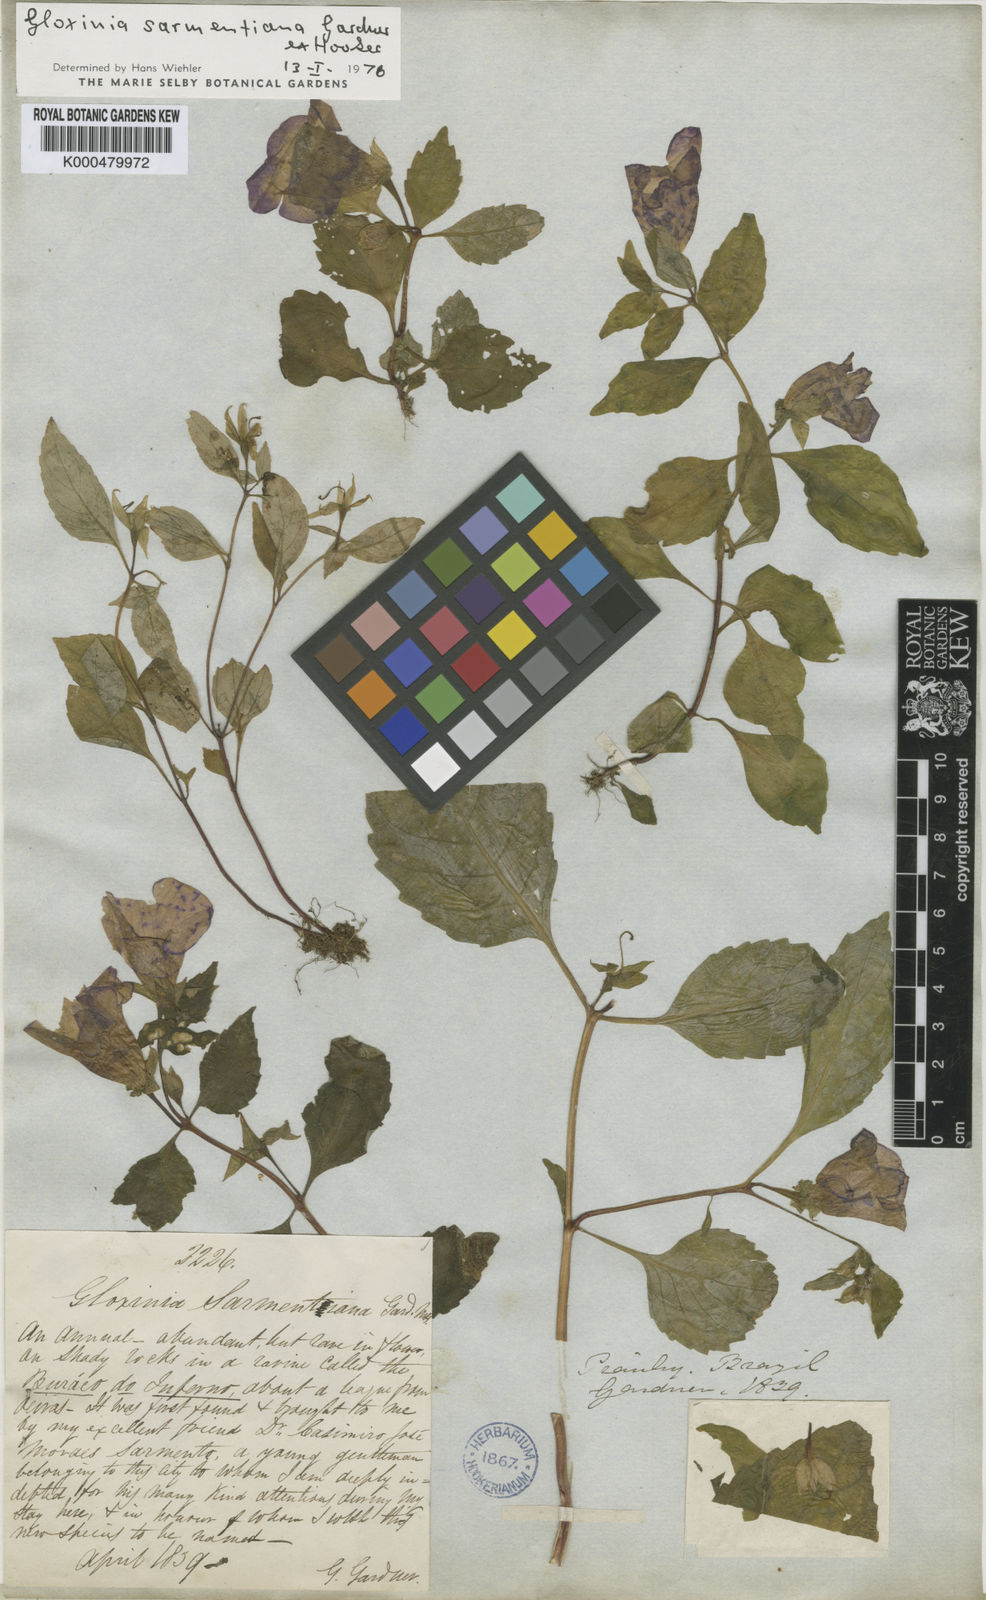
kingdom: Plantae
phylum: Tracheophyta
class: Magnoliopsida
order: Lamiales
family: Gesneriaceae
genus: Sphaerorrhiza
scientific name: Sphaerorrhiza sarmentiana
